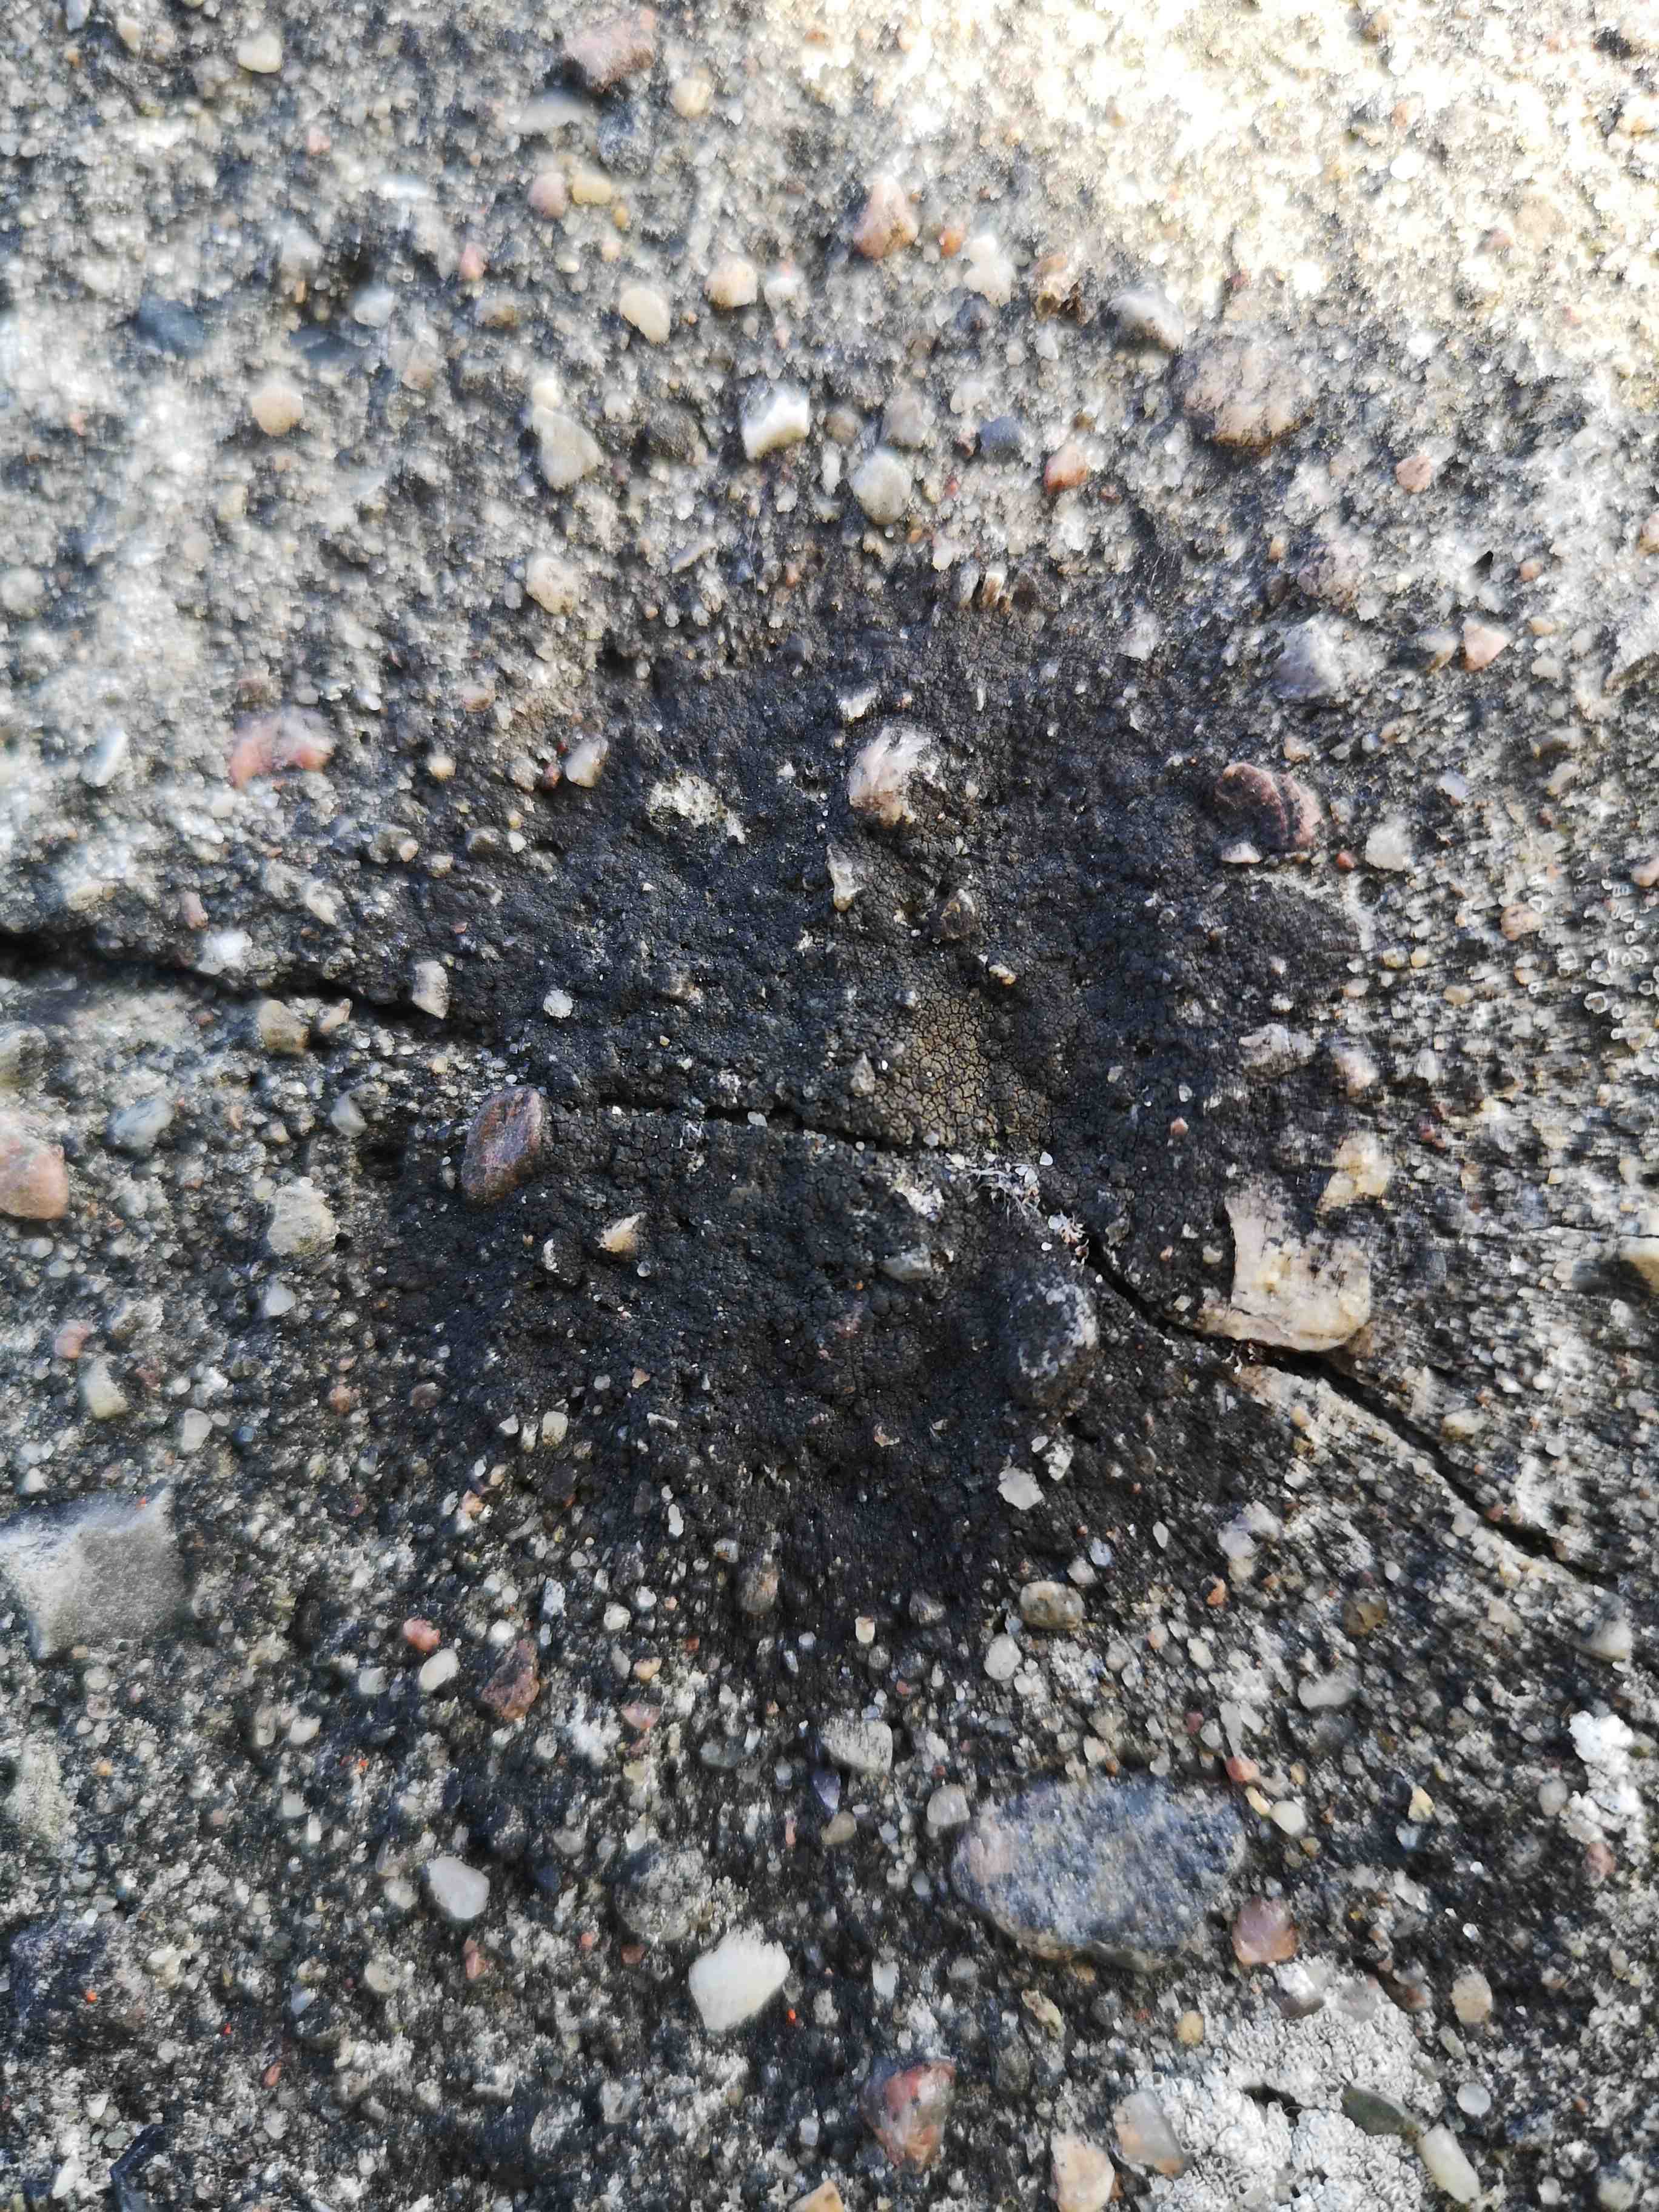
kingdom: Fungi
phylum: Ascomycota
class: Eurotiomycetes
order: Verrucariales
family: Verrucariaceae
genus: Verrucaria
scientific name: Verrucaria nigrescens
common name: sortbrun vortelav
